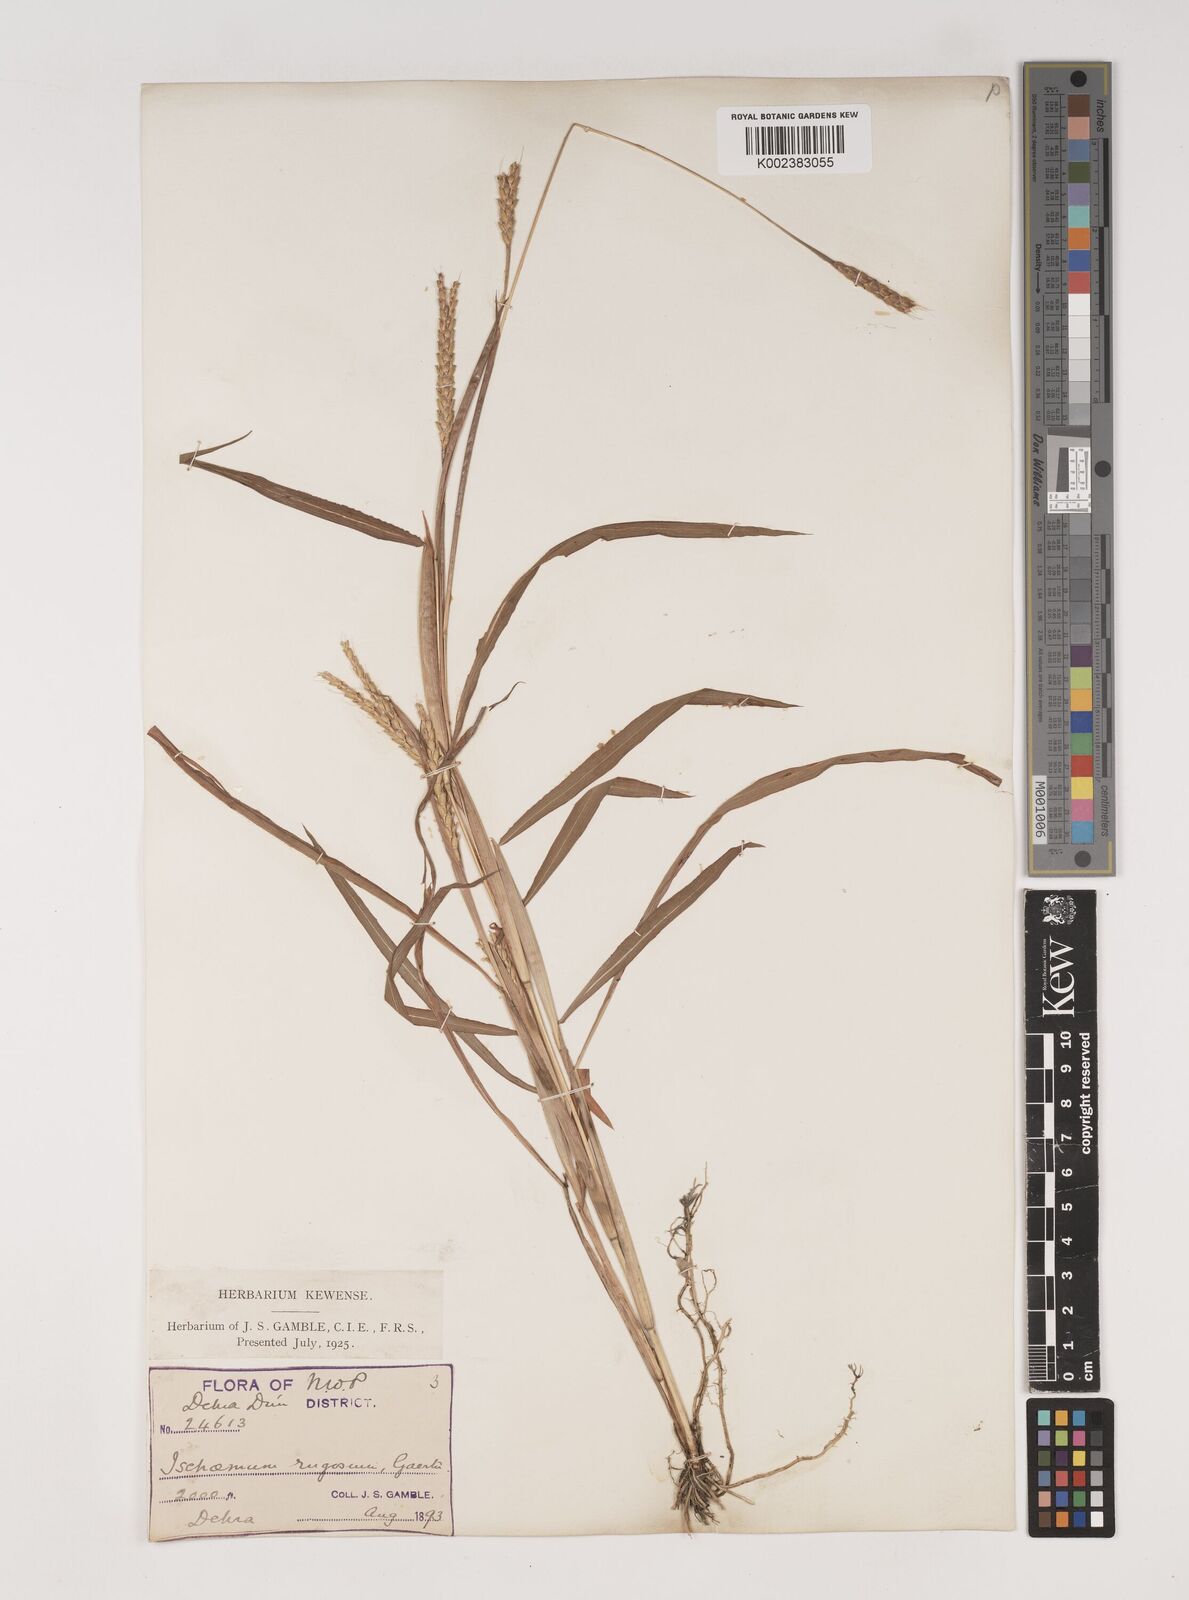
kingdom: Plantae
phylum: Tracheophyta
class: Liliopsida
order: Poales
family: Poaceae
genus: Ischaemum
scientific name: Ischaemum rugosum
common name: Saramatta grass
